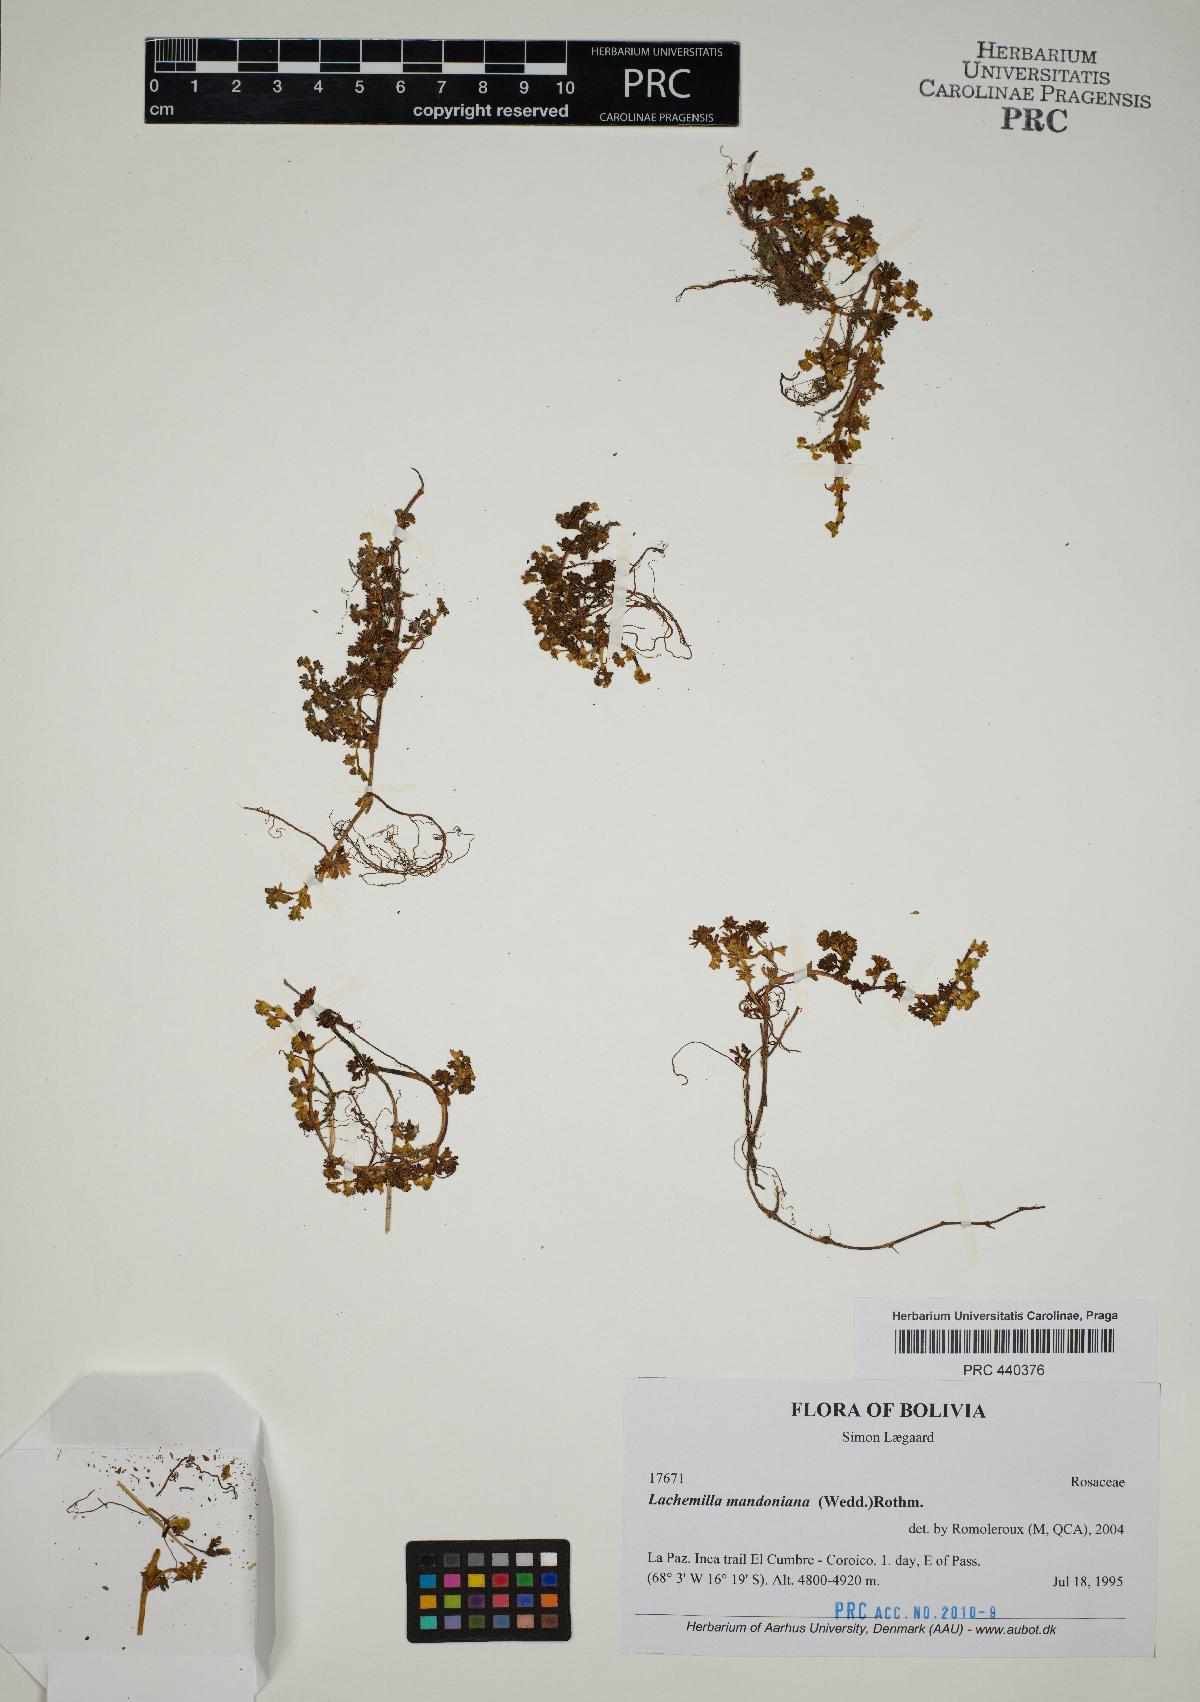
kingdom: Plantae
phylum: Tracheophyta
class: Magnoliopsida
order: Rosales
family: Rosaceae
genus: Lachemilla
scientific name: Lachemilla mandoniana
